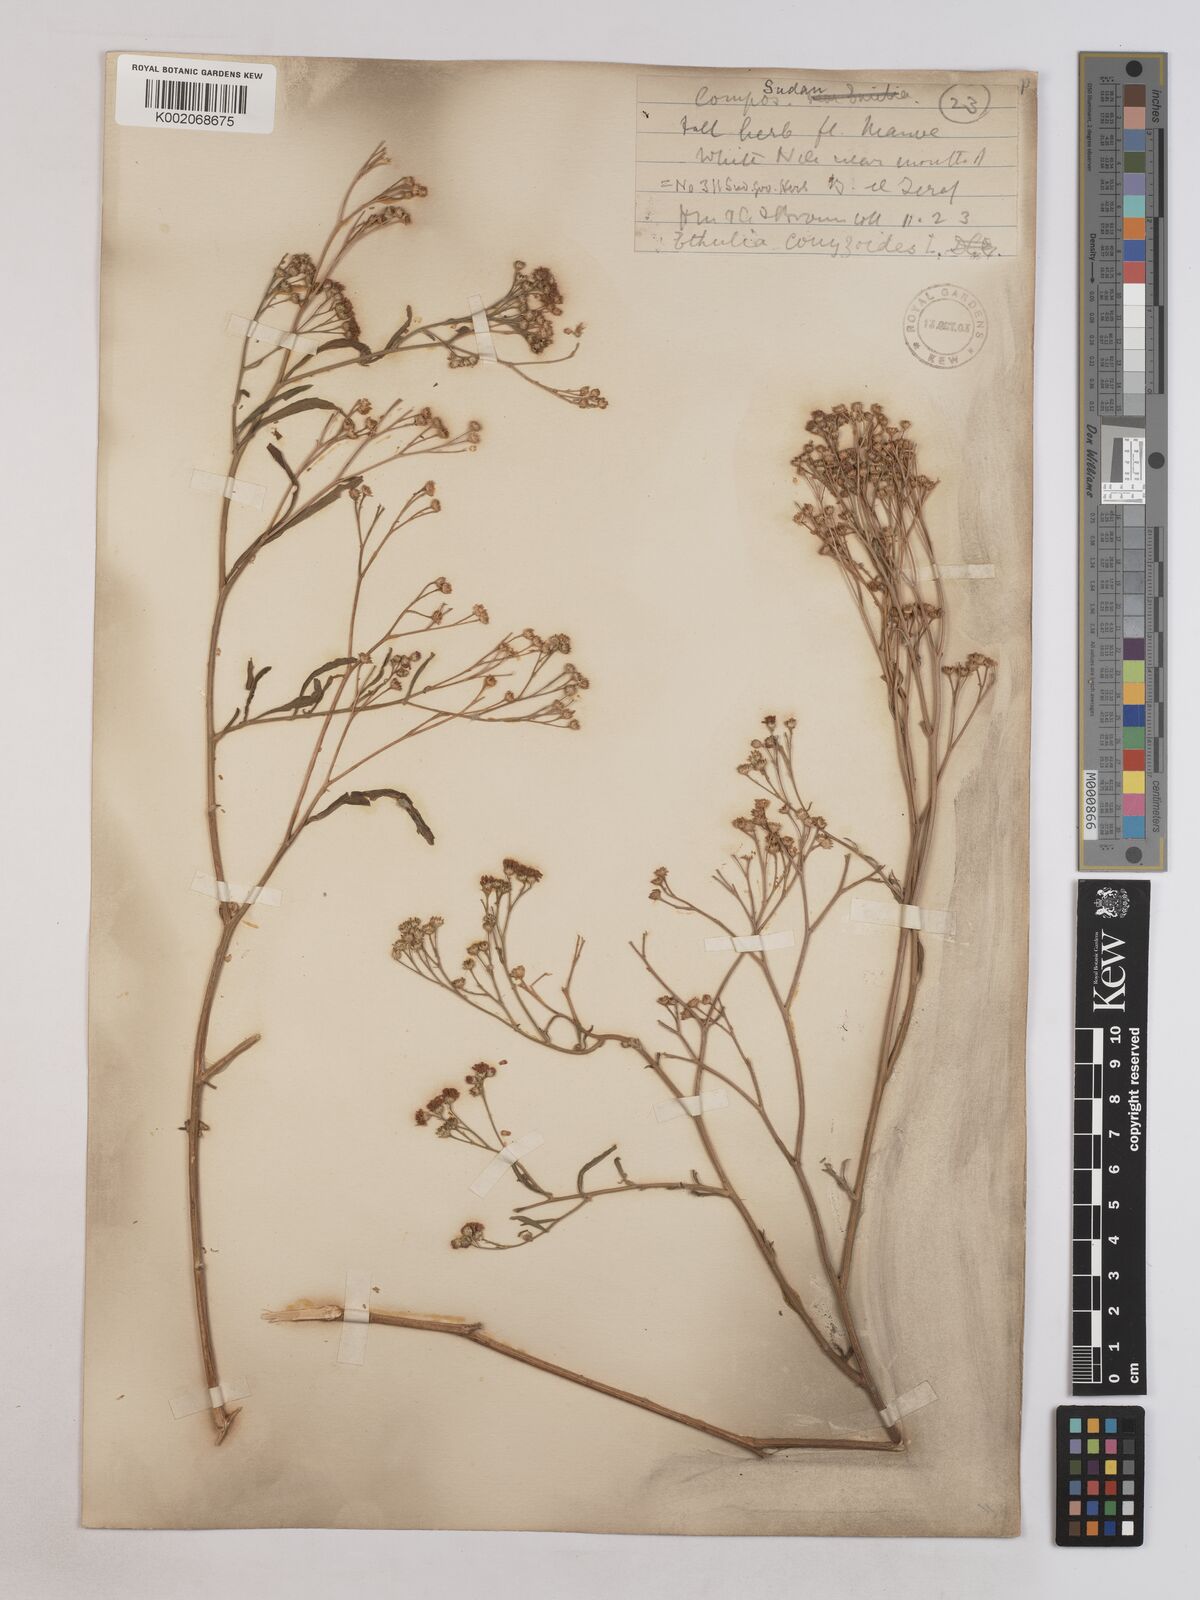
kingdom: Plantae
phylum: Tracheophyta
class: Magnoliopsida
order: Asterales
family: Asteraceae
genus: Ethulia
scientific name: Ethulia gracilis
